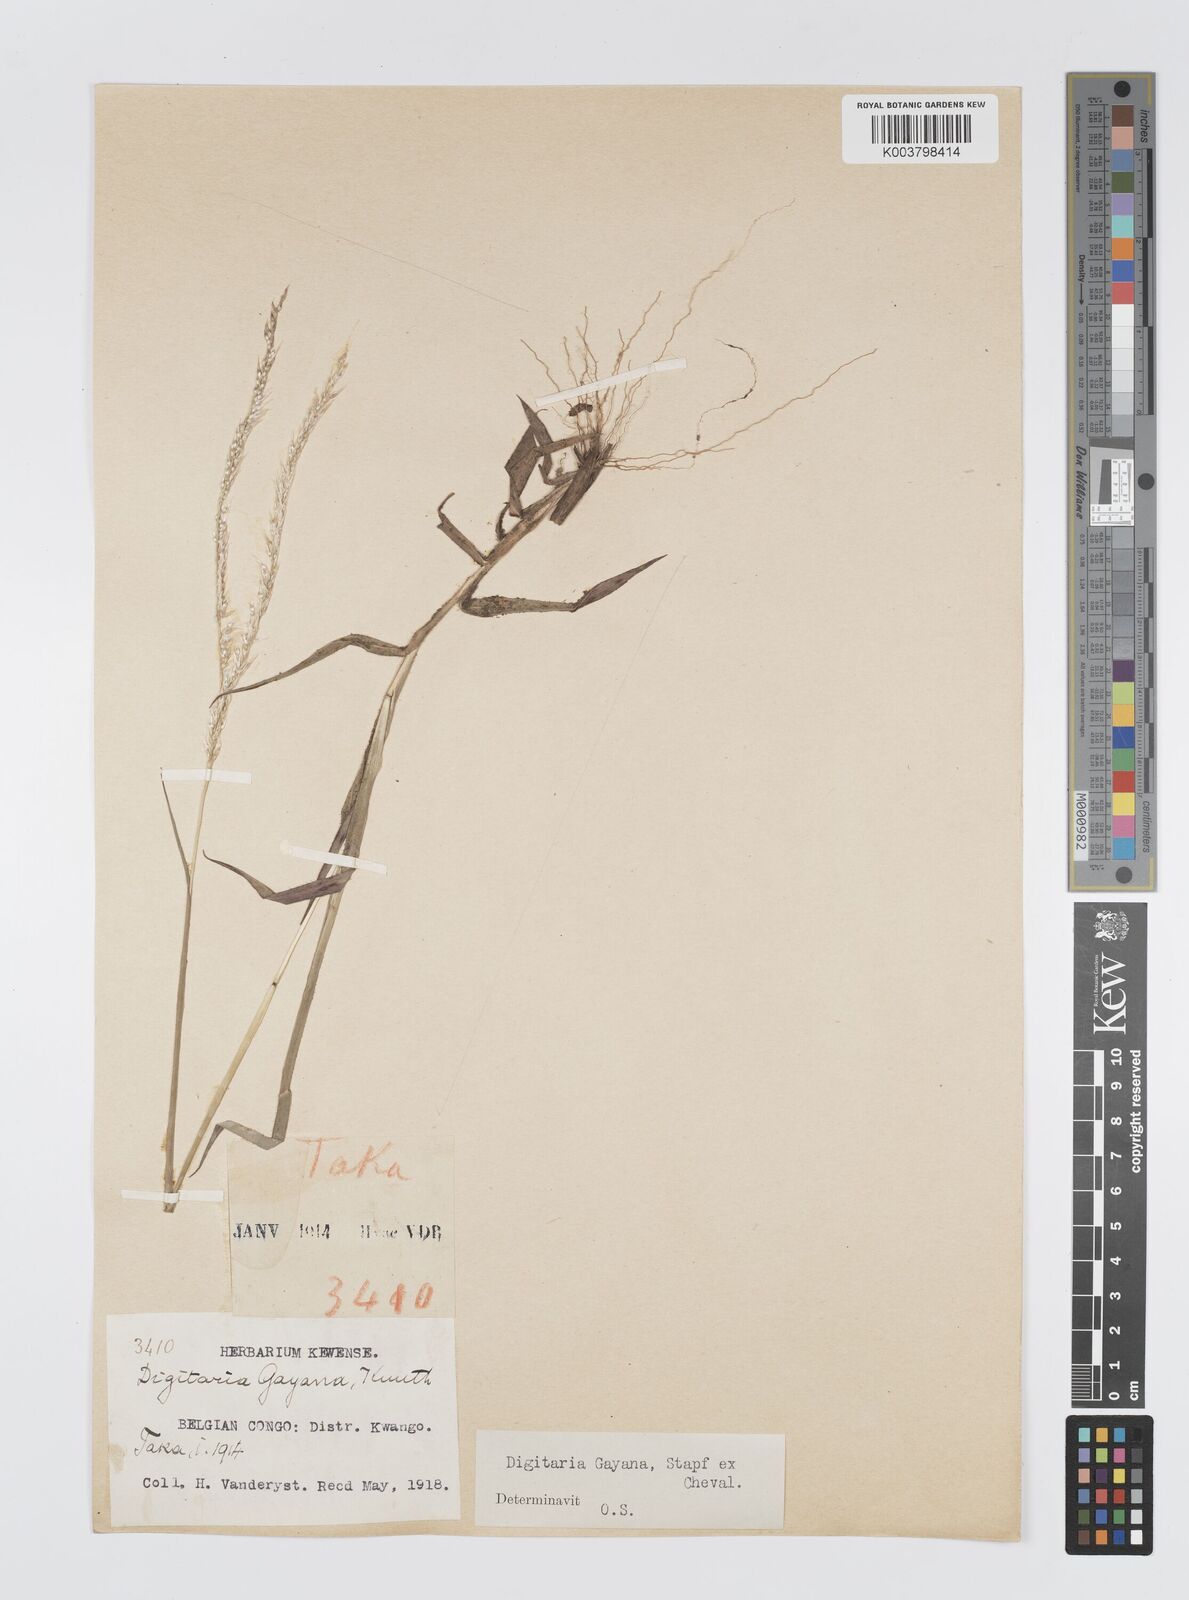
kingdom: Plantae
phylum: Tracheophyta
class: Liliopsida
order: Poales
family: Poaceae
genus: Digitaria
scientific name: Digitaria gayana
